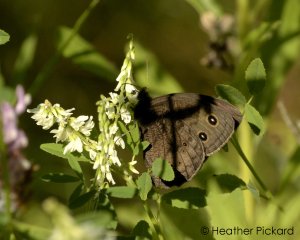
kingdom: Animalia
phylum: Arthropoda
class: Insecta
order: Lepidoptera
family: Nymphalidae
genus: Cercyonis
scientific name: Cercyonis pegala
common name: Common Wood-Nymph
